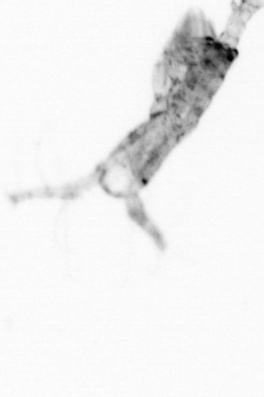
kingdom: Animalia
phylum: Arthropoda
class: Copepoda
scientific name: Copepoda
